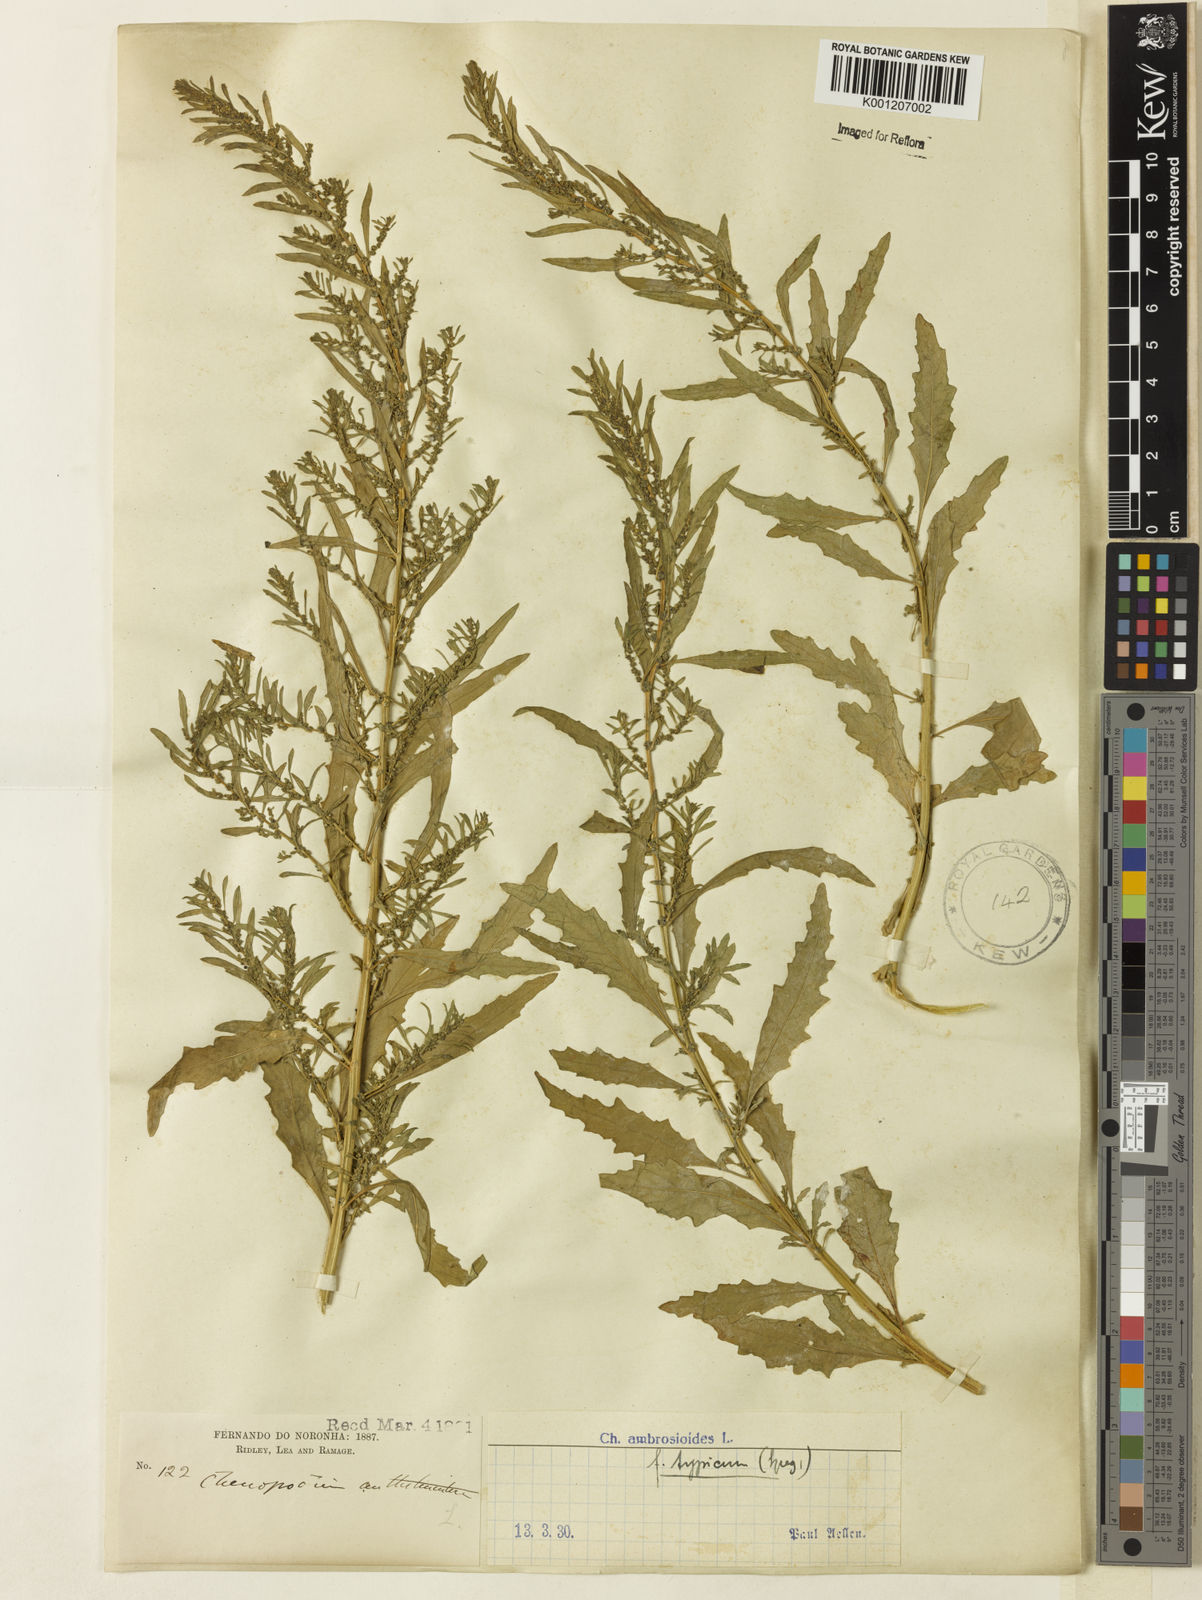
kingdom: Plantae
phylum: Tracheophyta
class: Magnoliopsida
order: Caryophyllales
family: Amaranthaceae
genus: Dysphania
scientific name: Dysphania ambrosioides
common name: Wormseed
